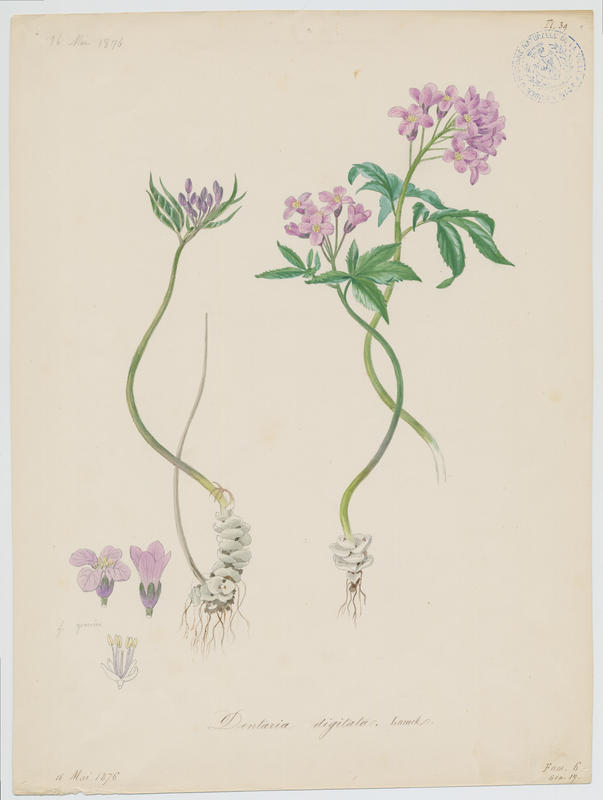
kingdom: Plantae
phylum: Tracheophyta
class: Magnoliopsida
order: Brassicales
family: Brassicaceae
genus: Cardamine
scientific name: Cardamine pentaphyllos
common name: Five-leaflet bitter-cress
